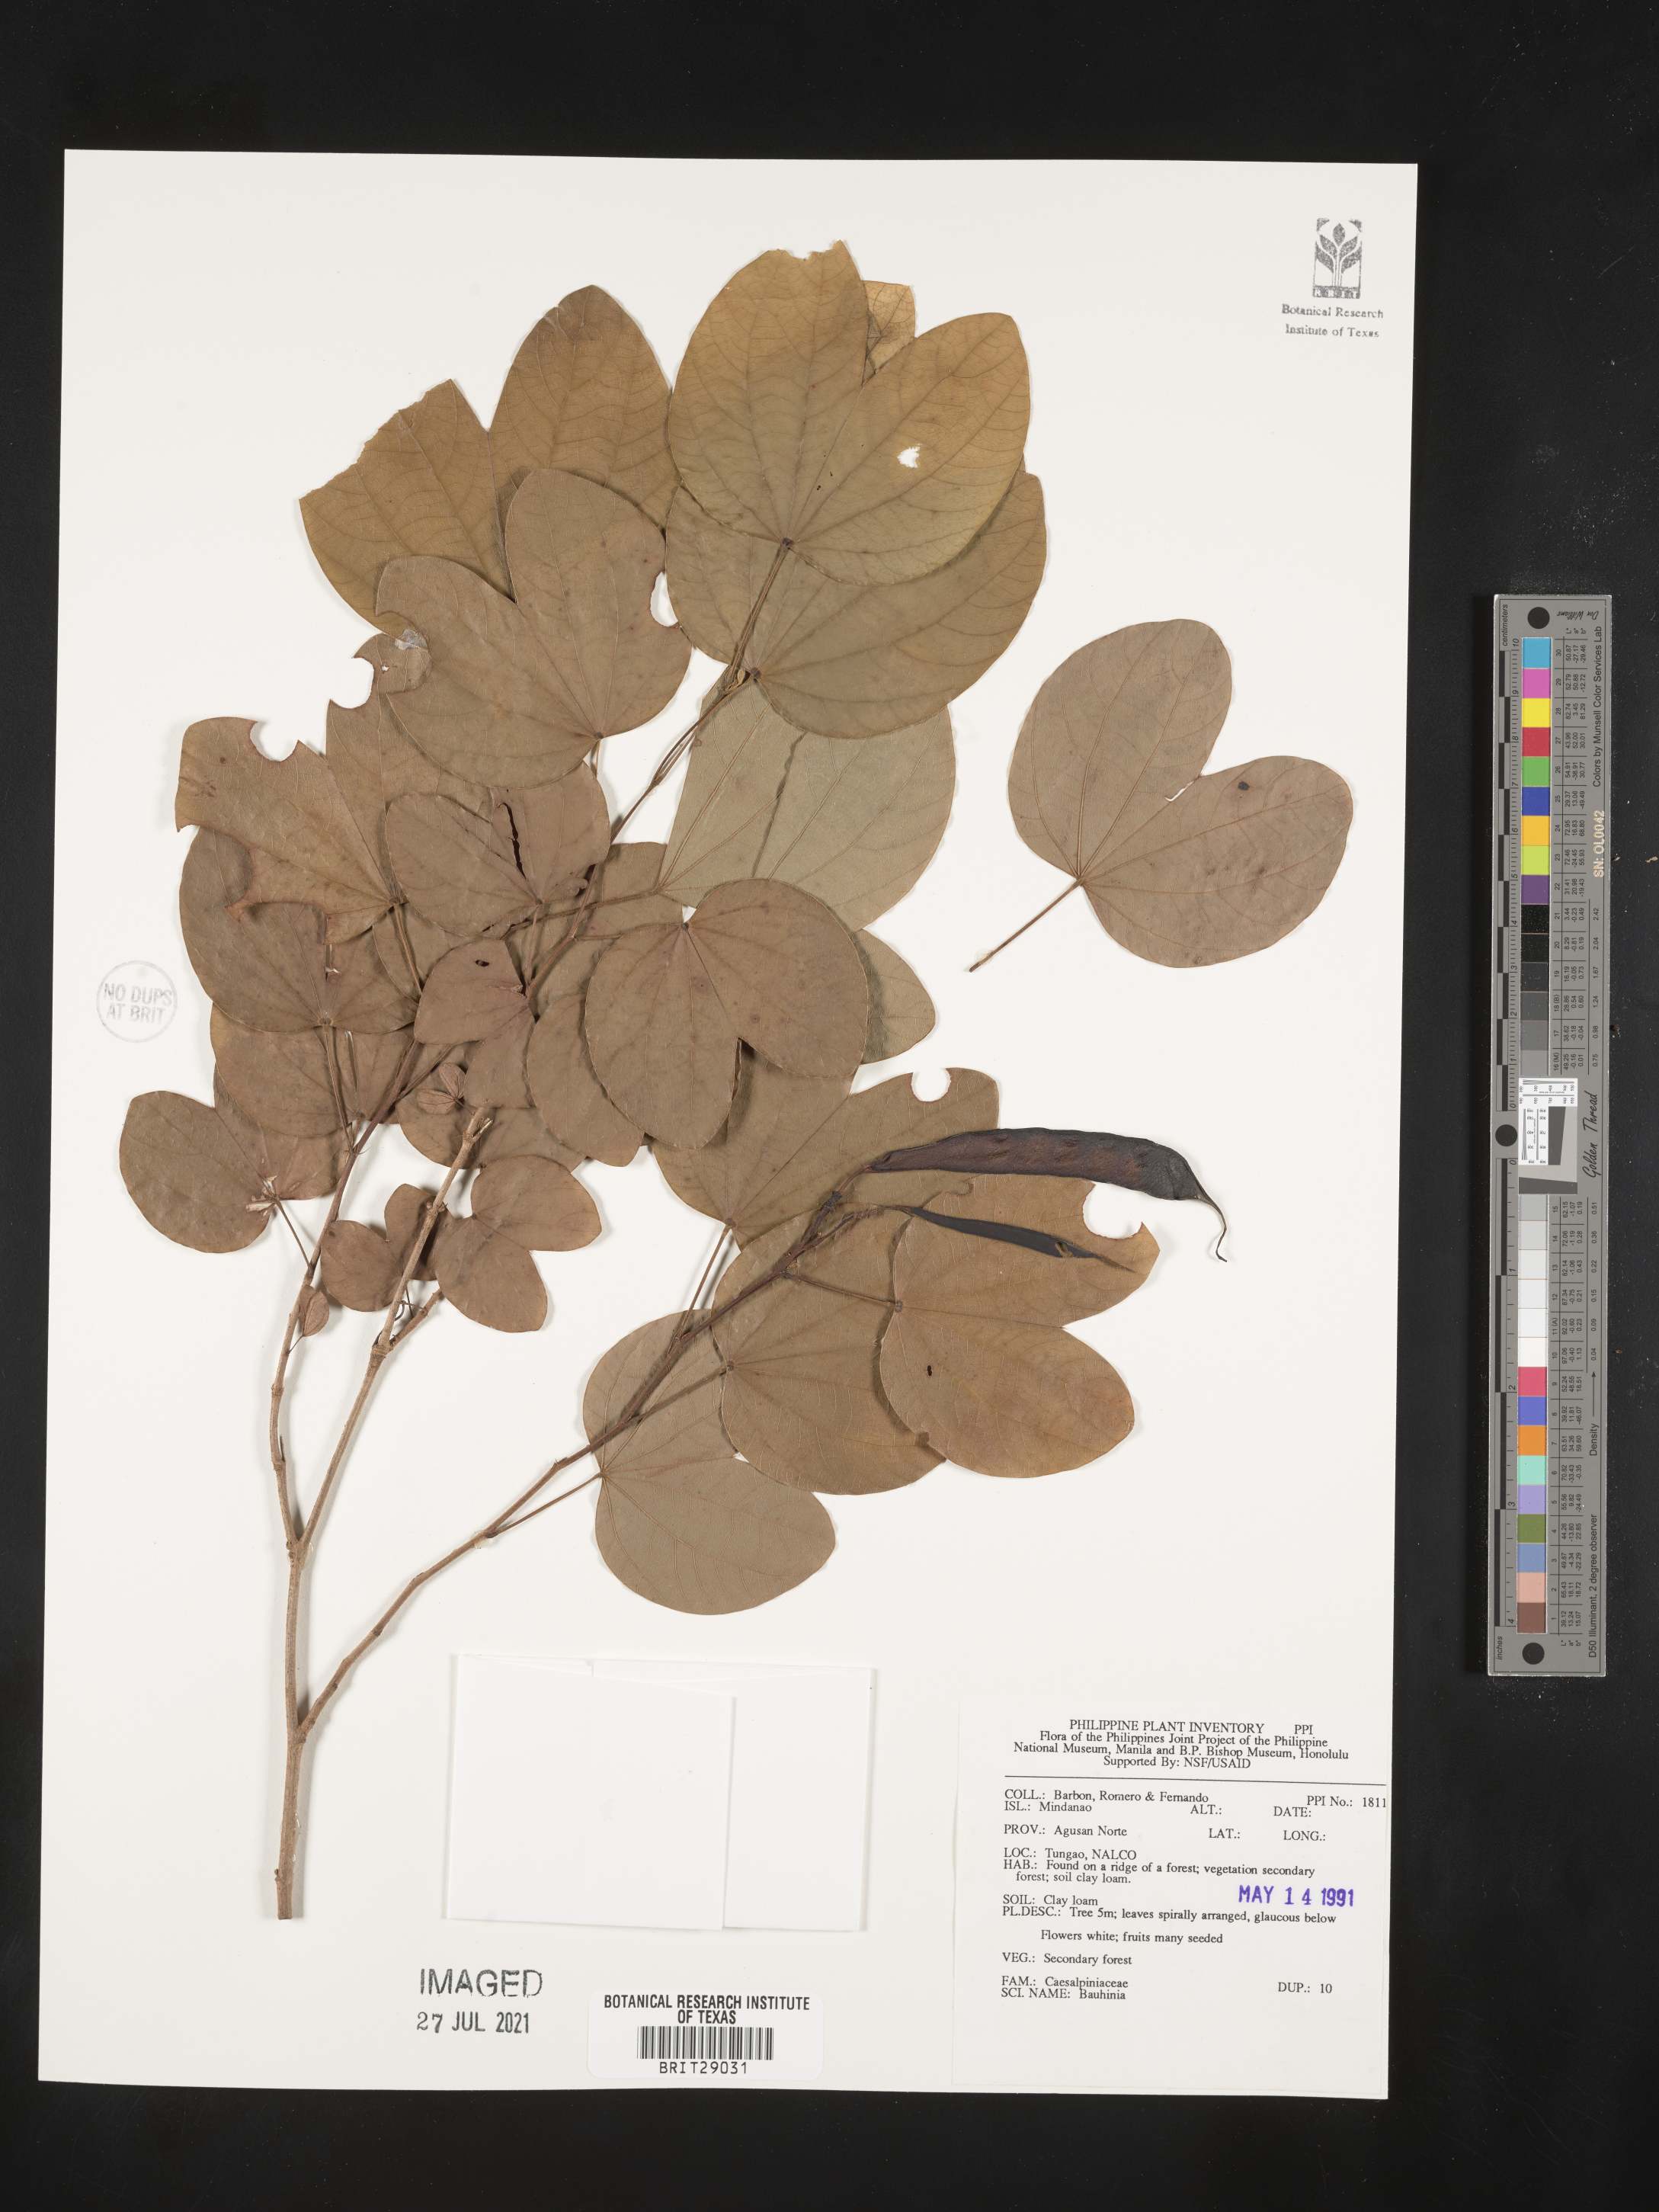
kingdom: Plantae
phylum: Tracheophyta
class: Magnoliopsida
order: Fabales
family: Fabaceae
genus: Bauhinia
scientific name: Bauhinia
